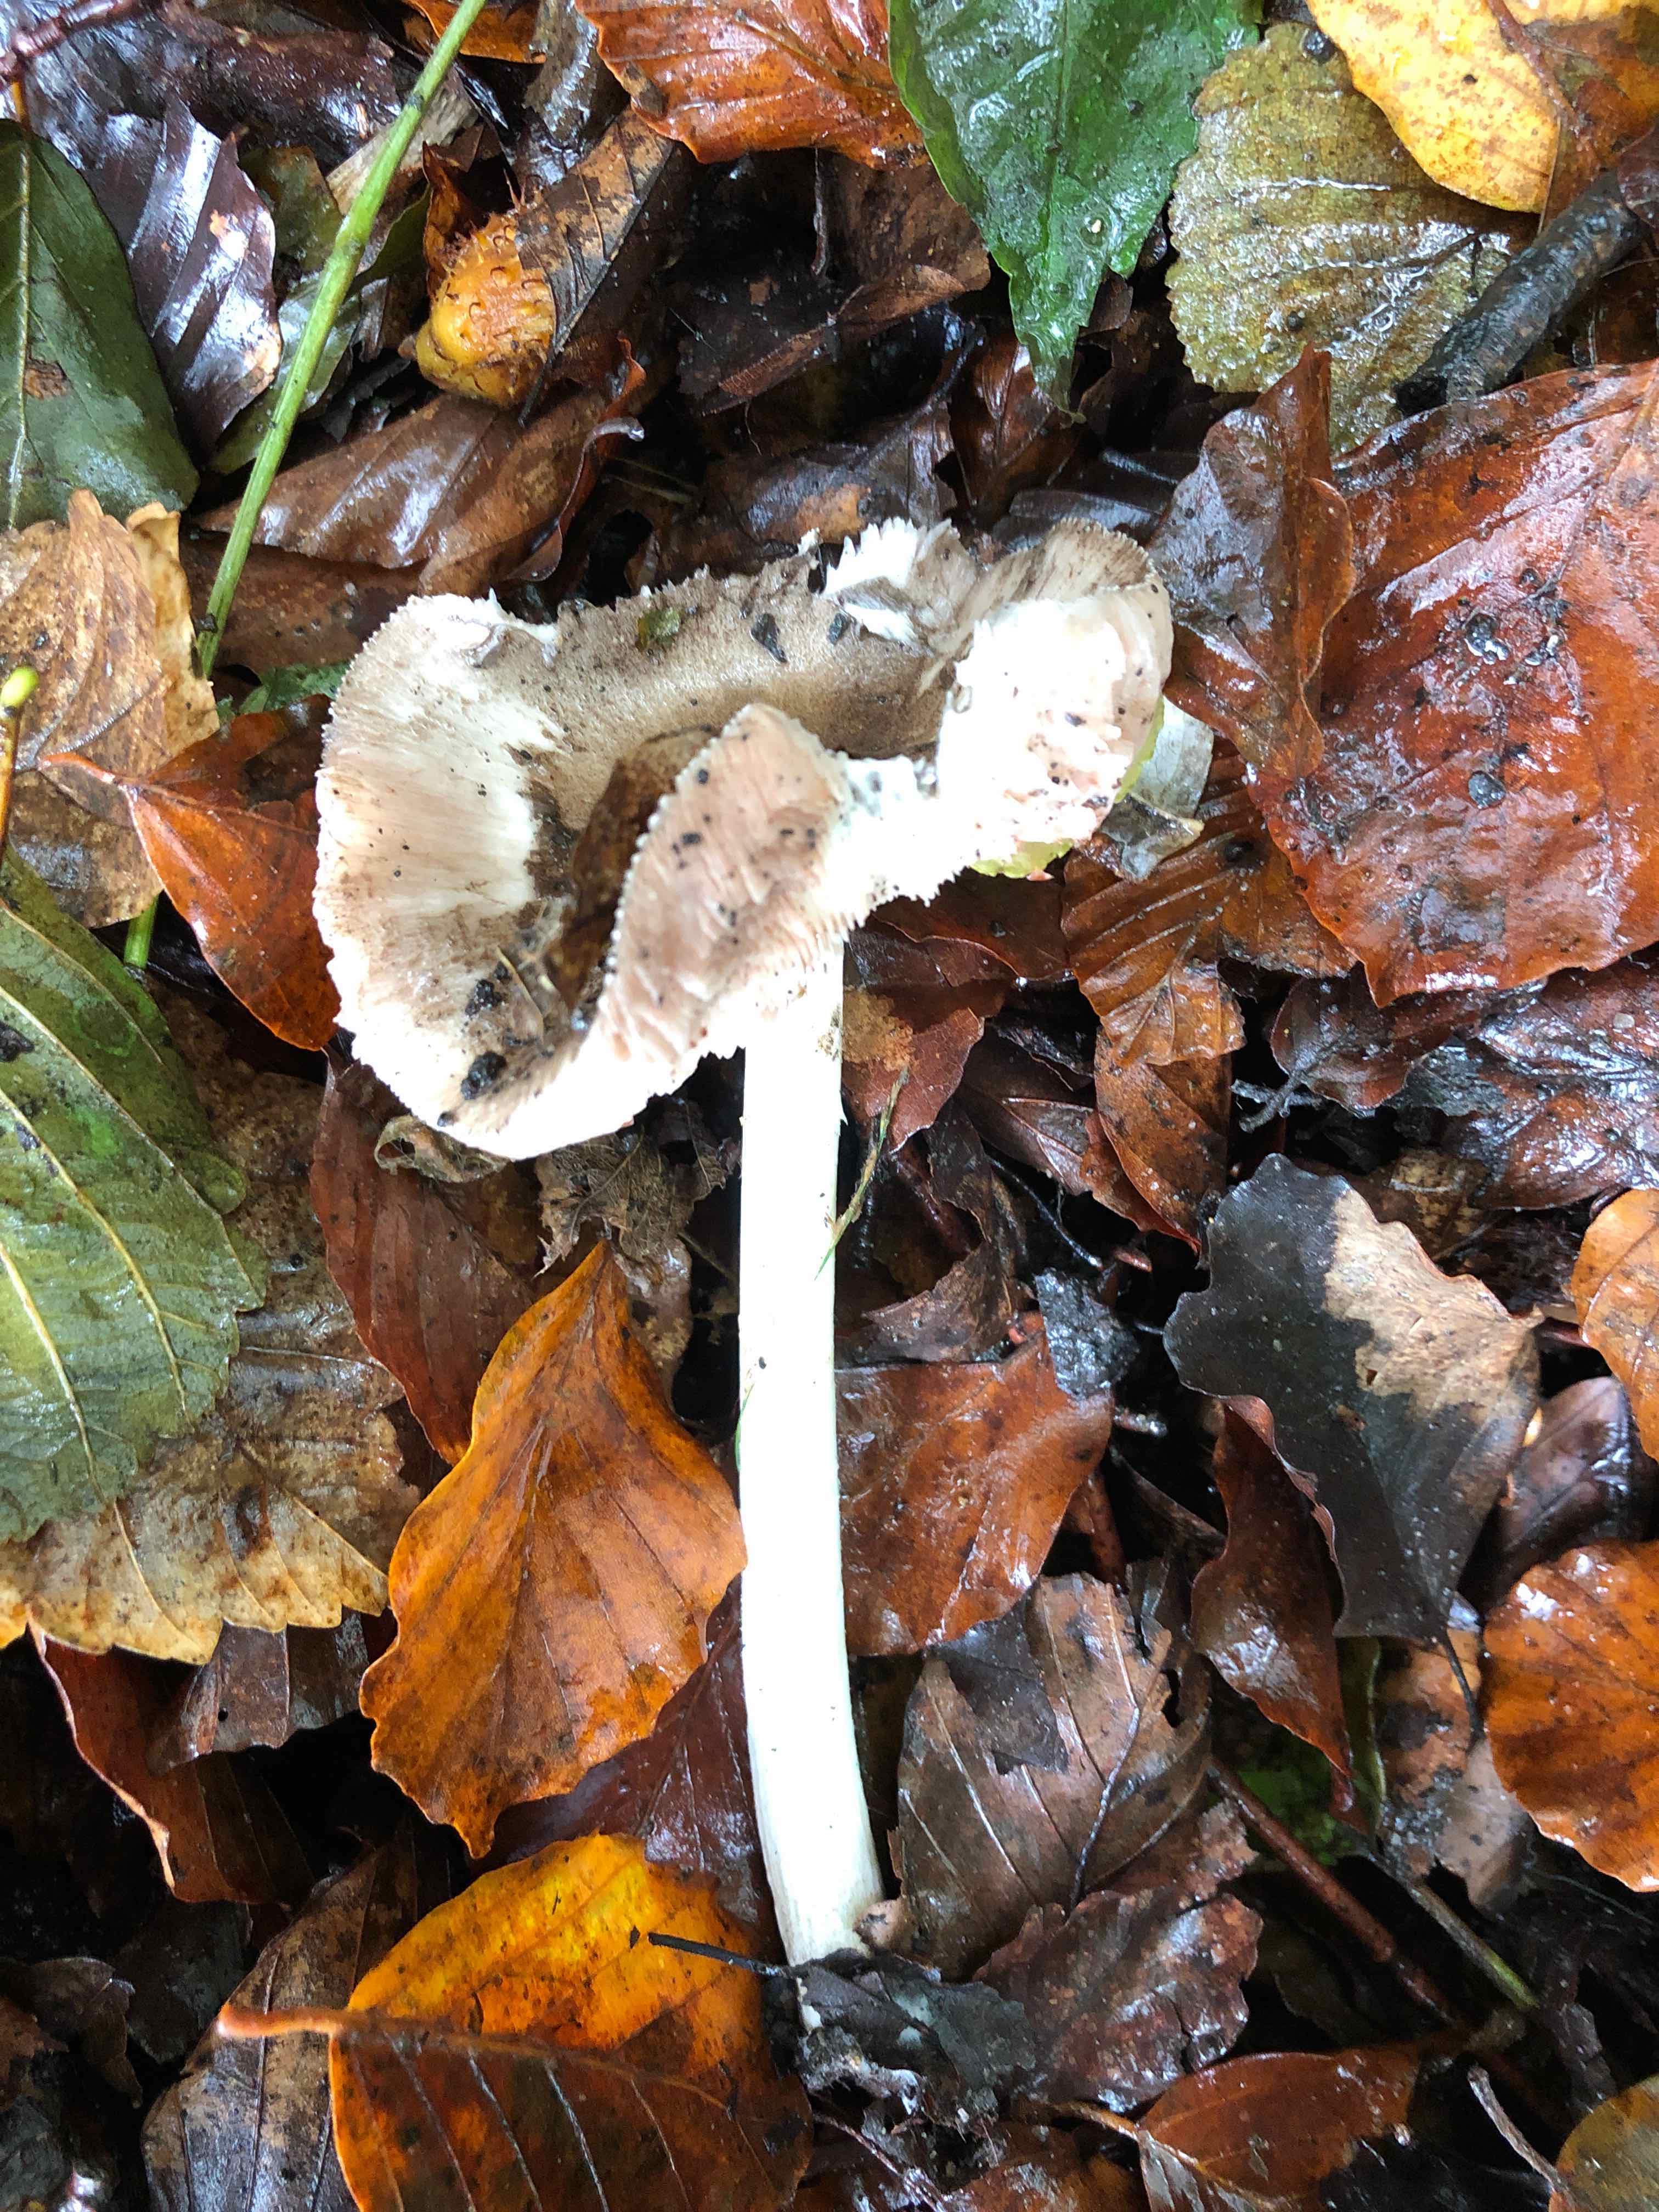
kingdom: Fungi
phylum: Basidiomycota
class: Agaricomycetes
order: Agaricales
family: Pluteaceae
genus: Pluteus
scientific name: Pluteus
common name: gråfibret skærmhat
